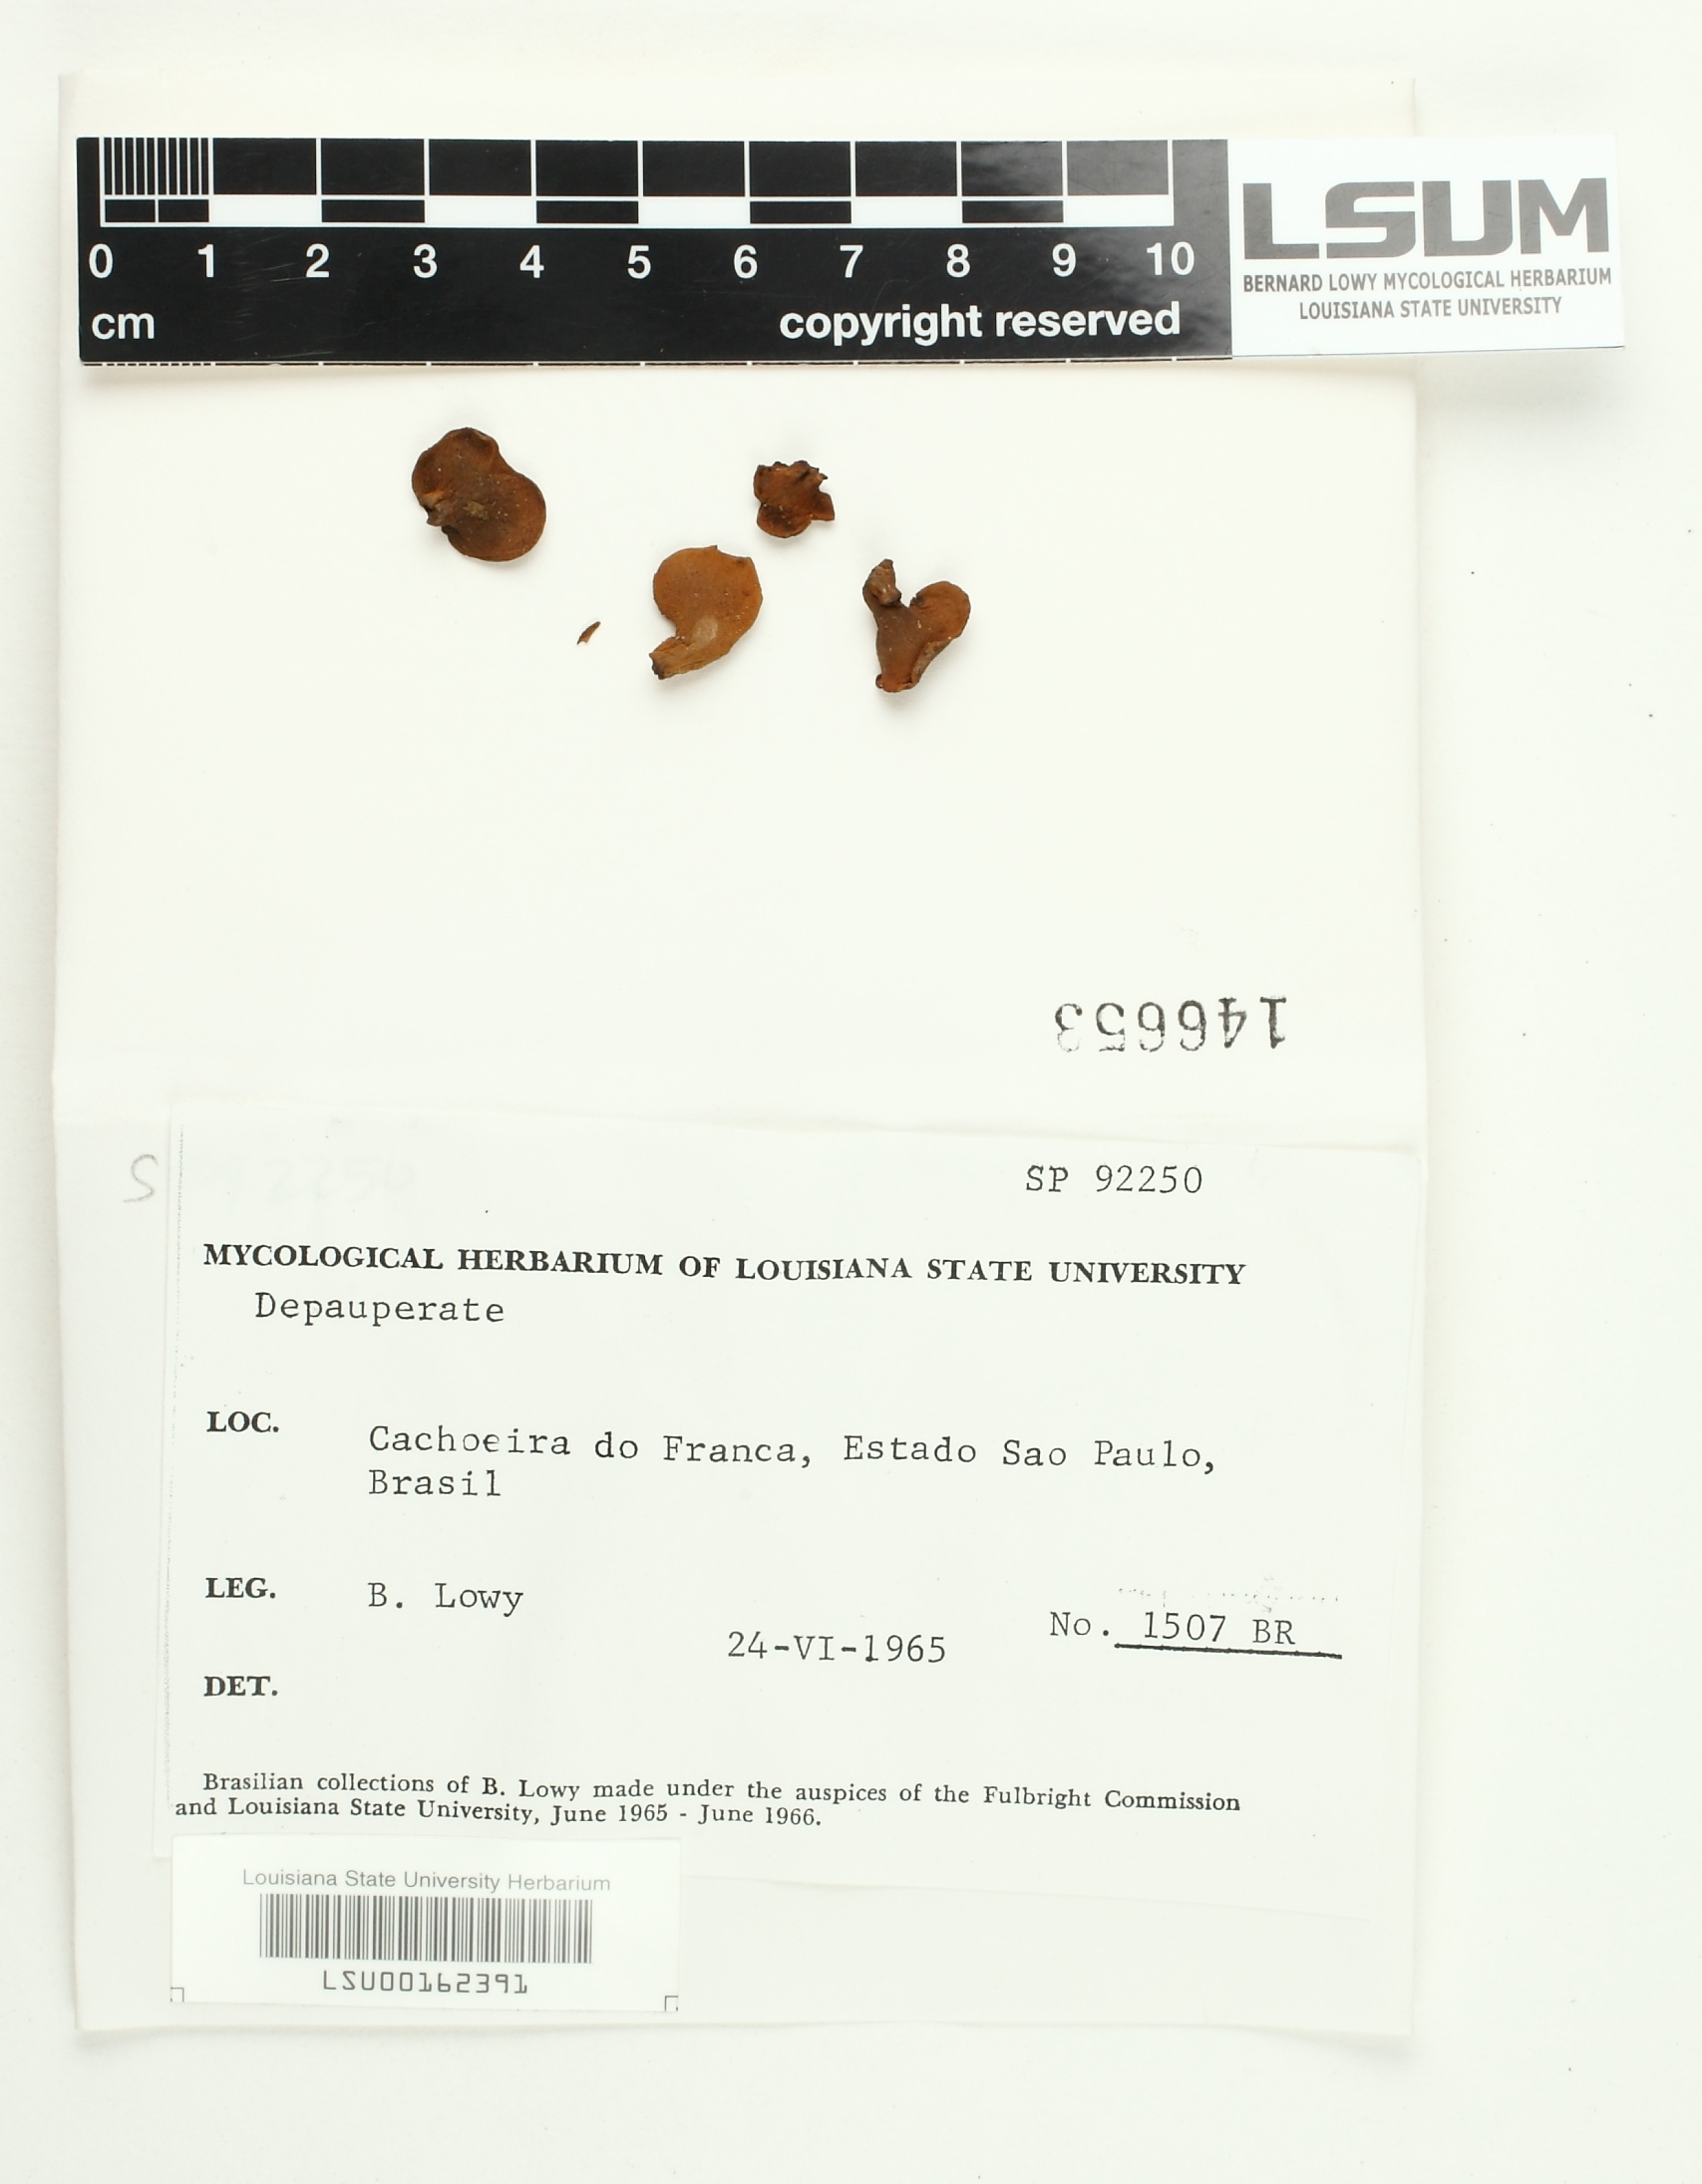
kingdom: Fungi
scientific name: Fungi
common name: Fungi
